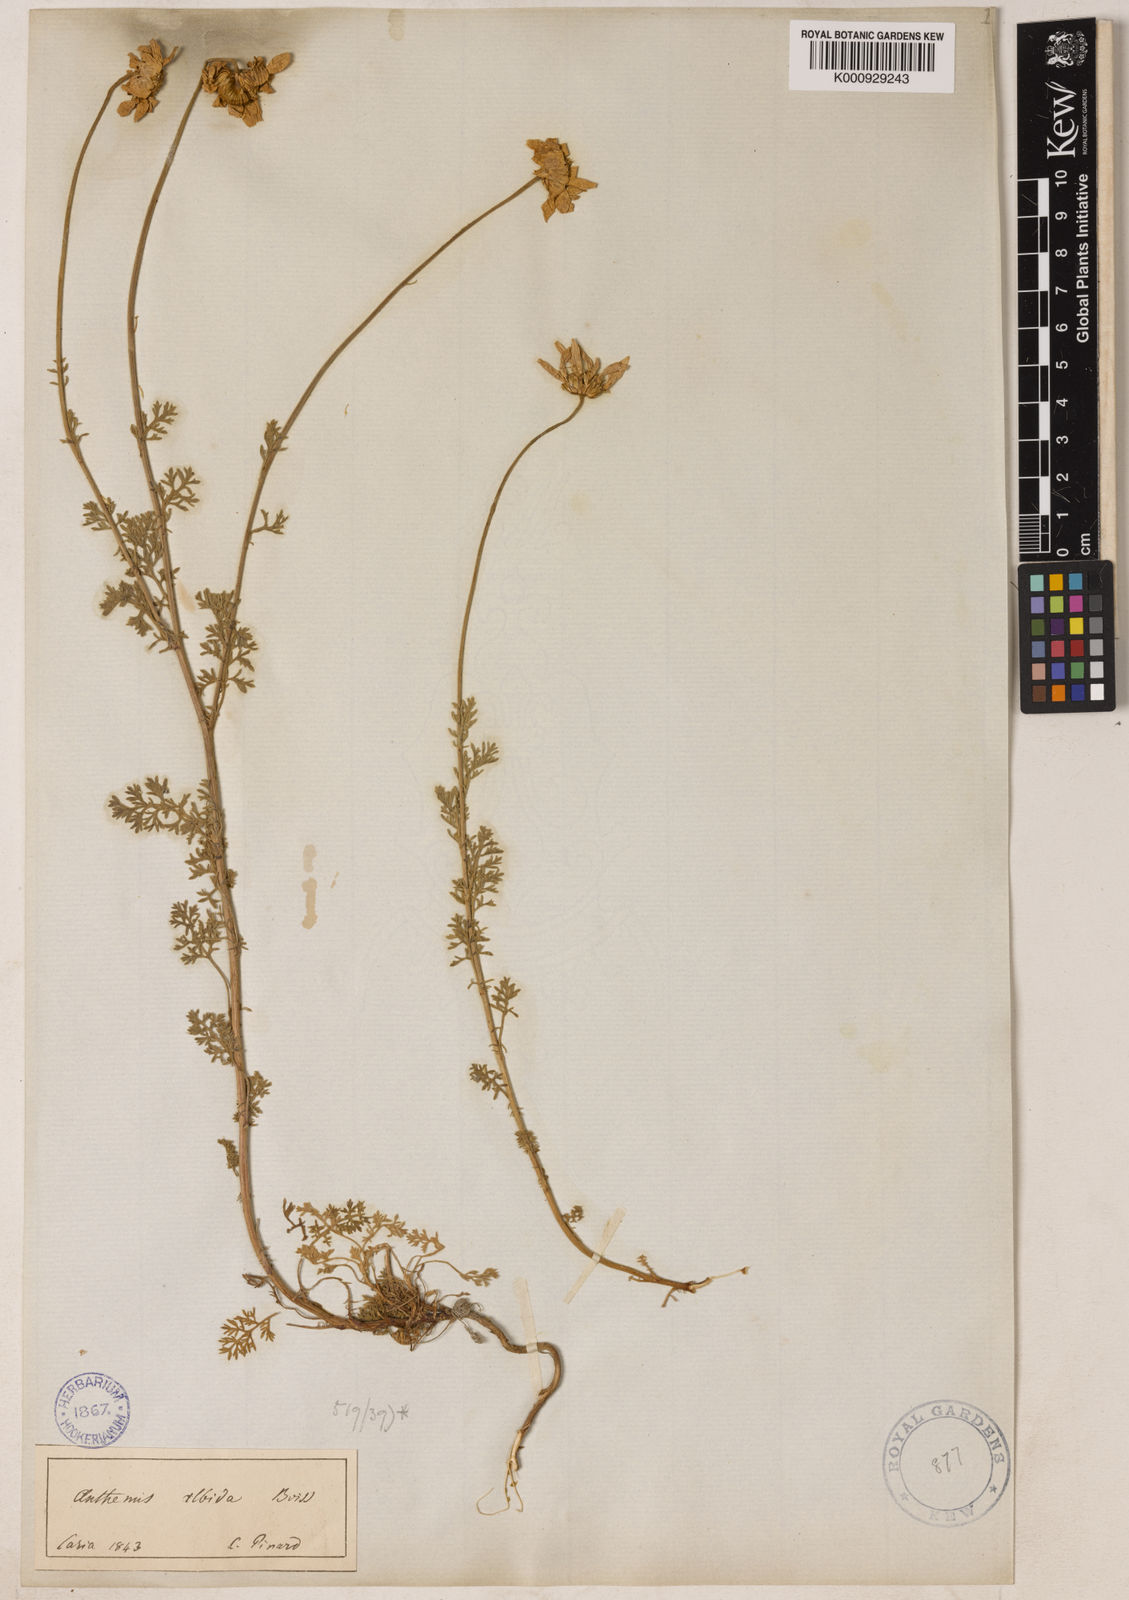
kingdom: Plantae
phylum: Tracheophyta
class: Magnoliopsida
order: Asterales
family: Asteraceae
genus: Anthemis
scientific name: Anthemis cretica
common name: Mountain dog-daisy
